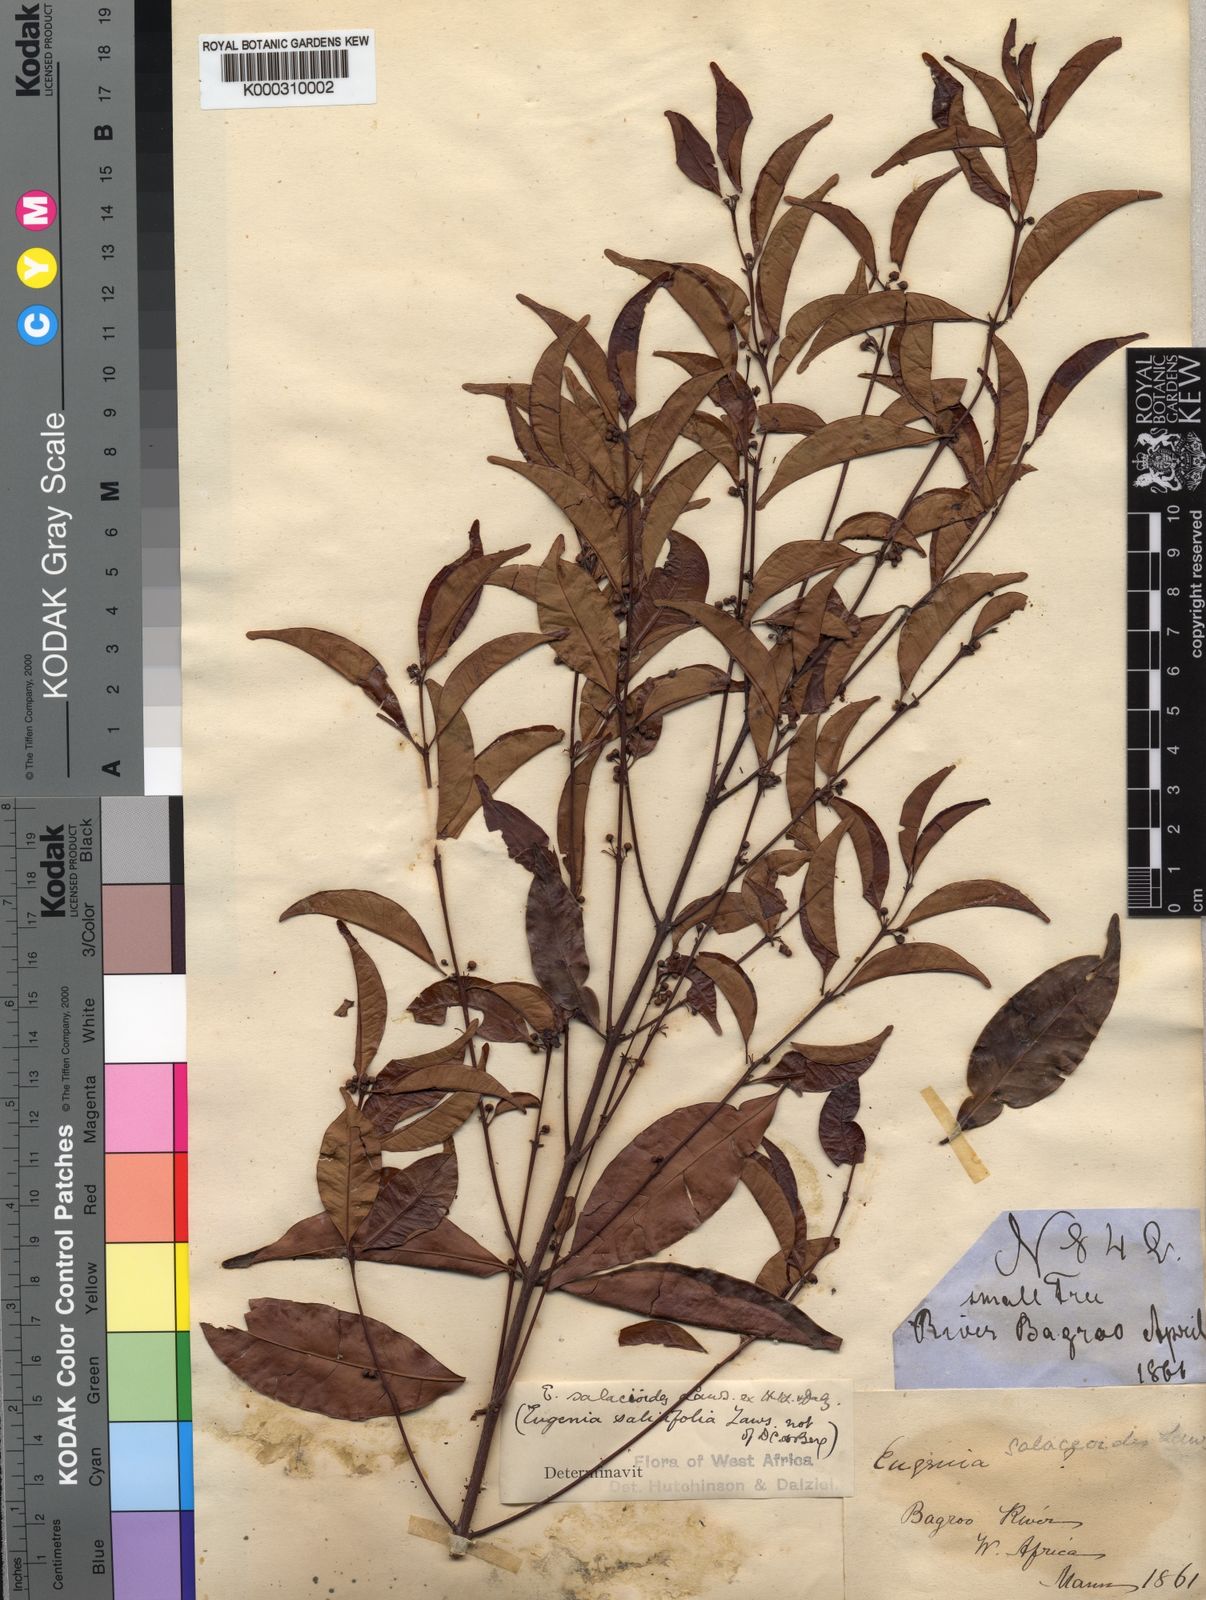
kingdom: Plantae
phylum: Tracheophyta
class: Magnoliopsida
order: Myrtales
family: Myrtaceae
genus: Eugenia
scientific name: Eugenia leonensis
